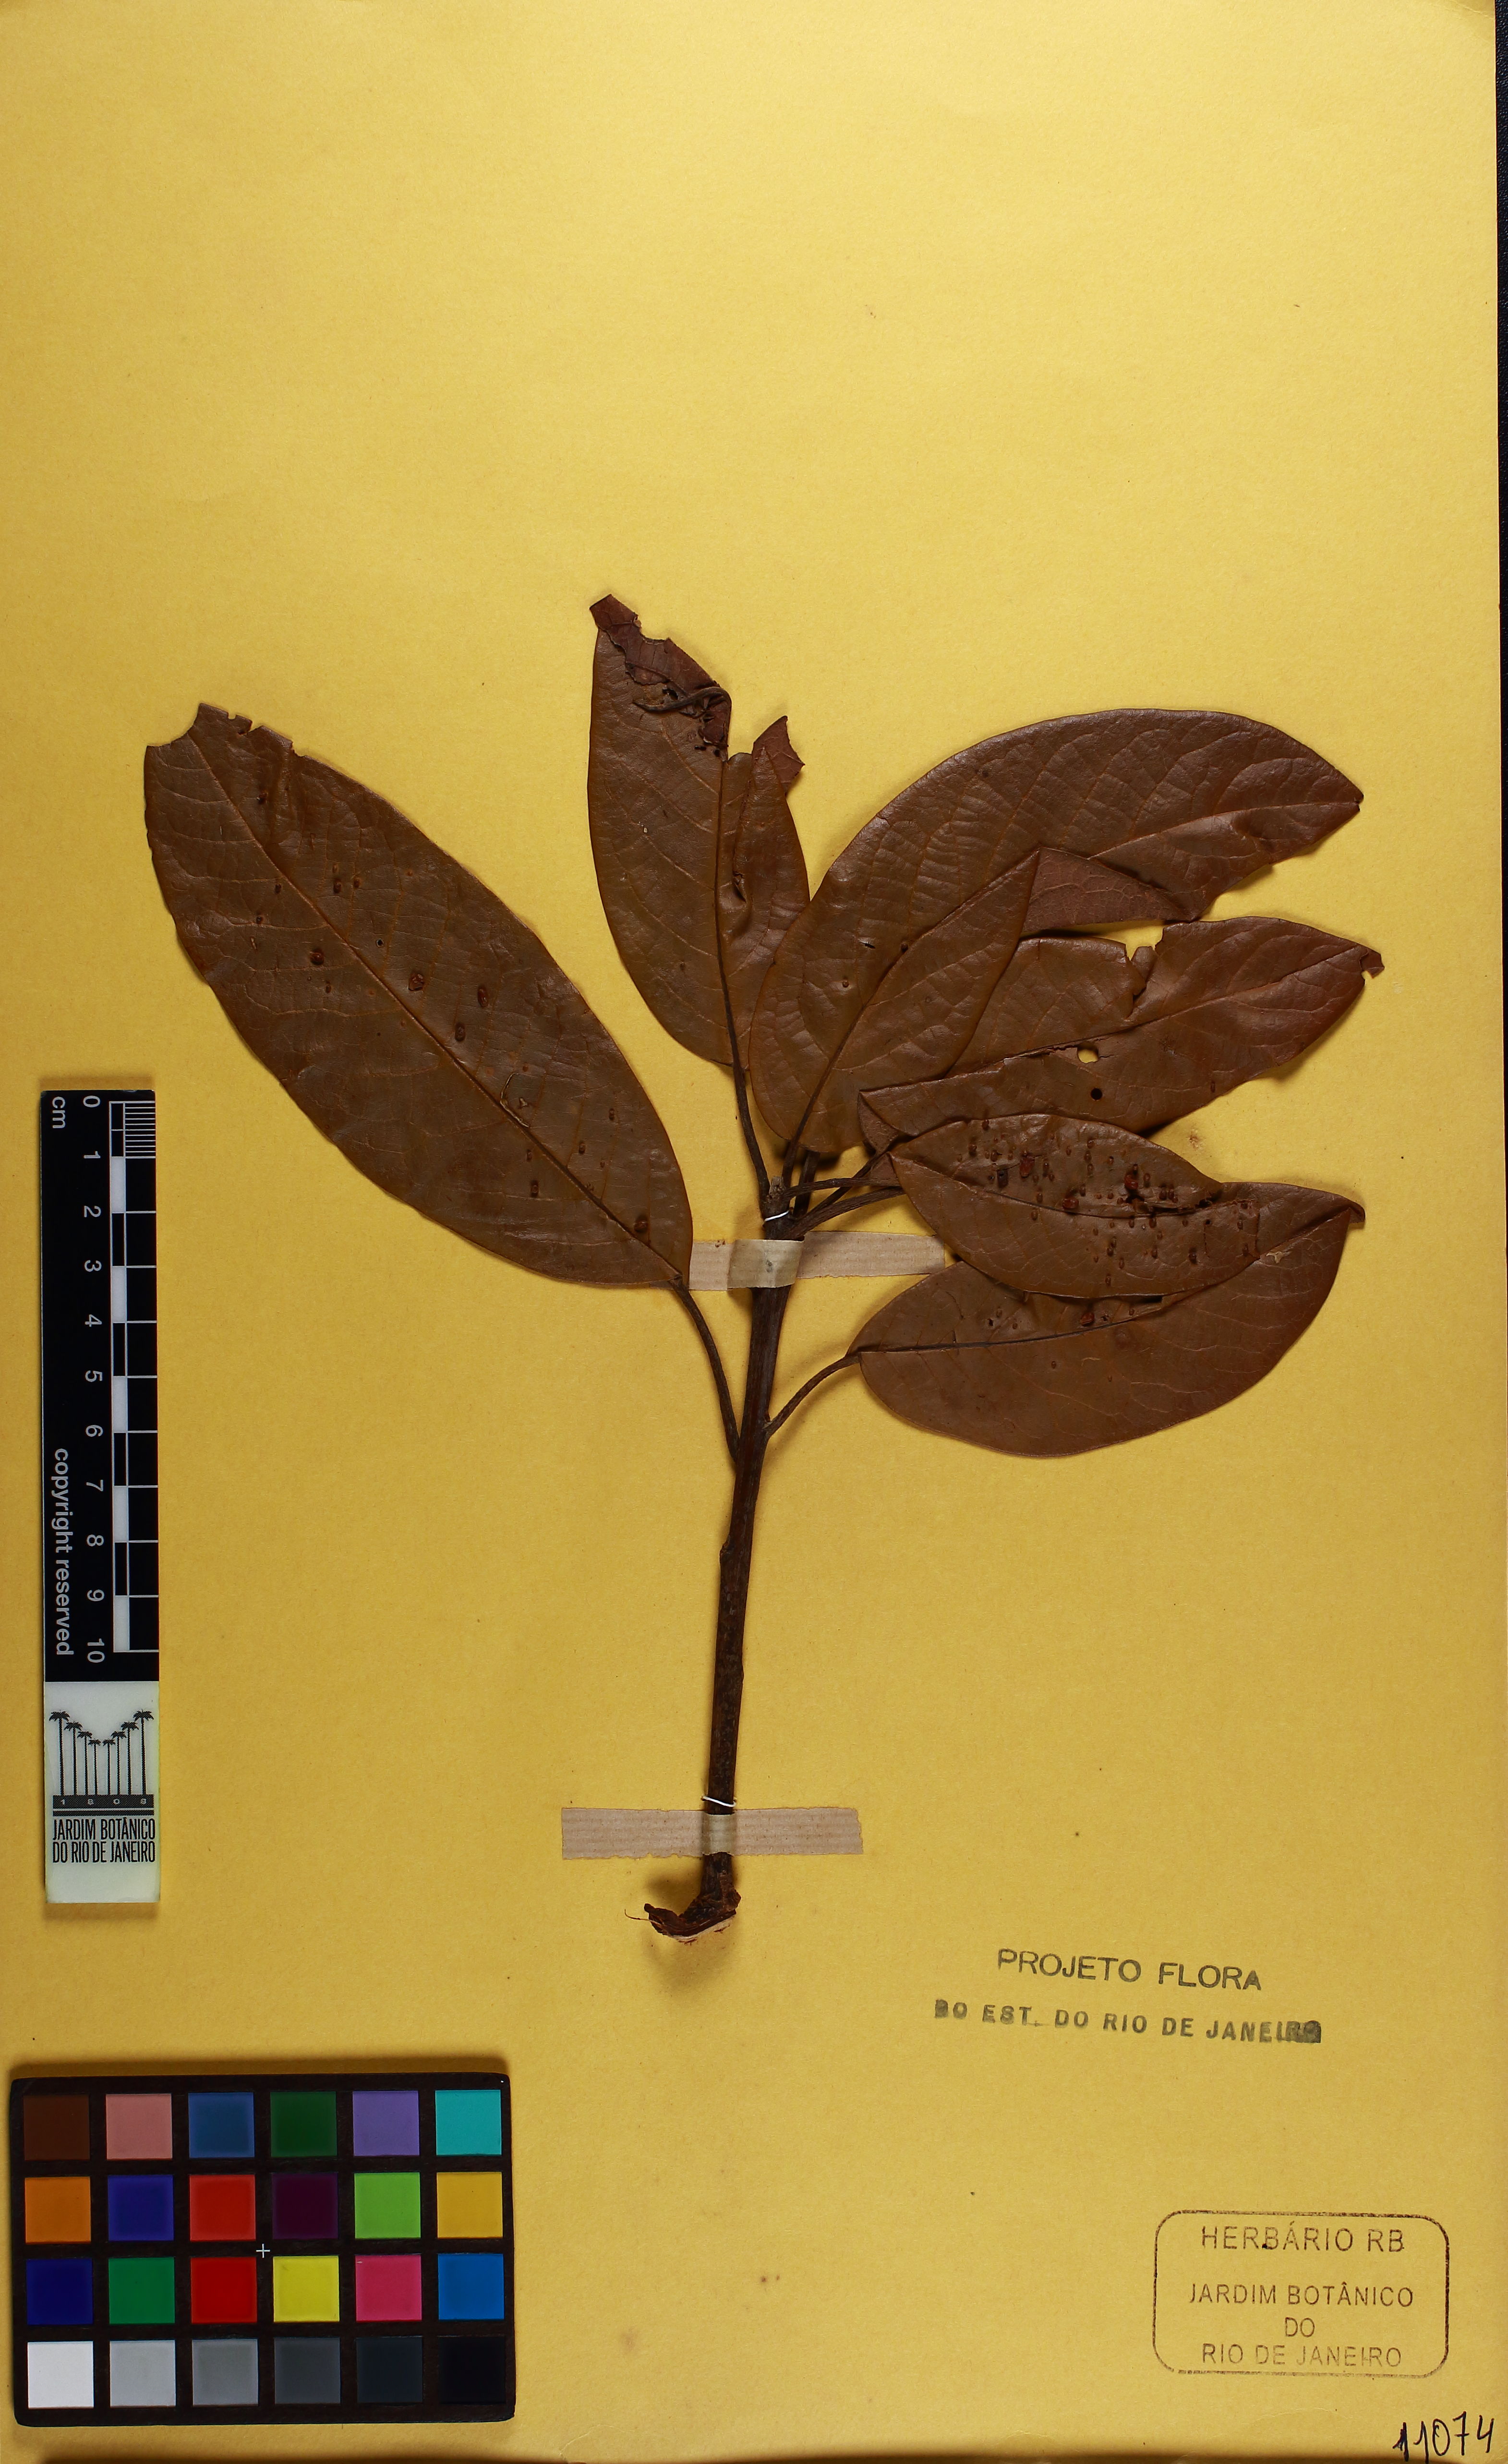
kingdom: Plantae
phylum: Tracheophyta
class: Magnoliopsida
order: Laurales
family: Lauraceae
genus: Persea
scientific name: Persea willdenovii
